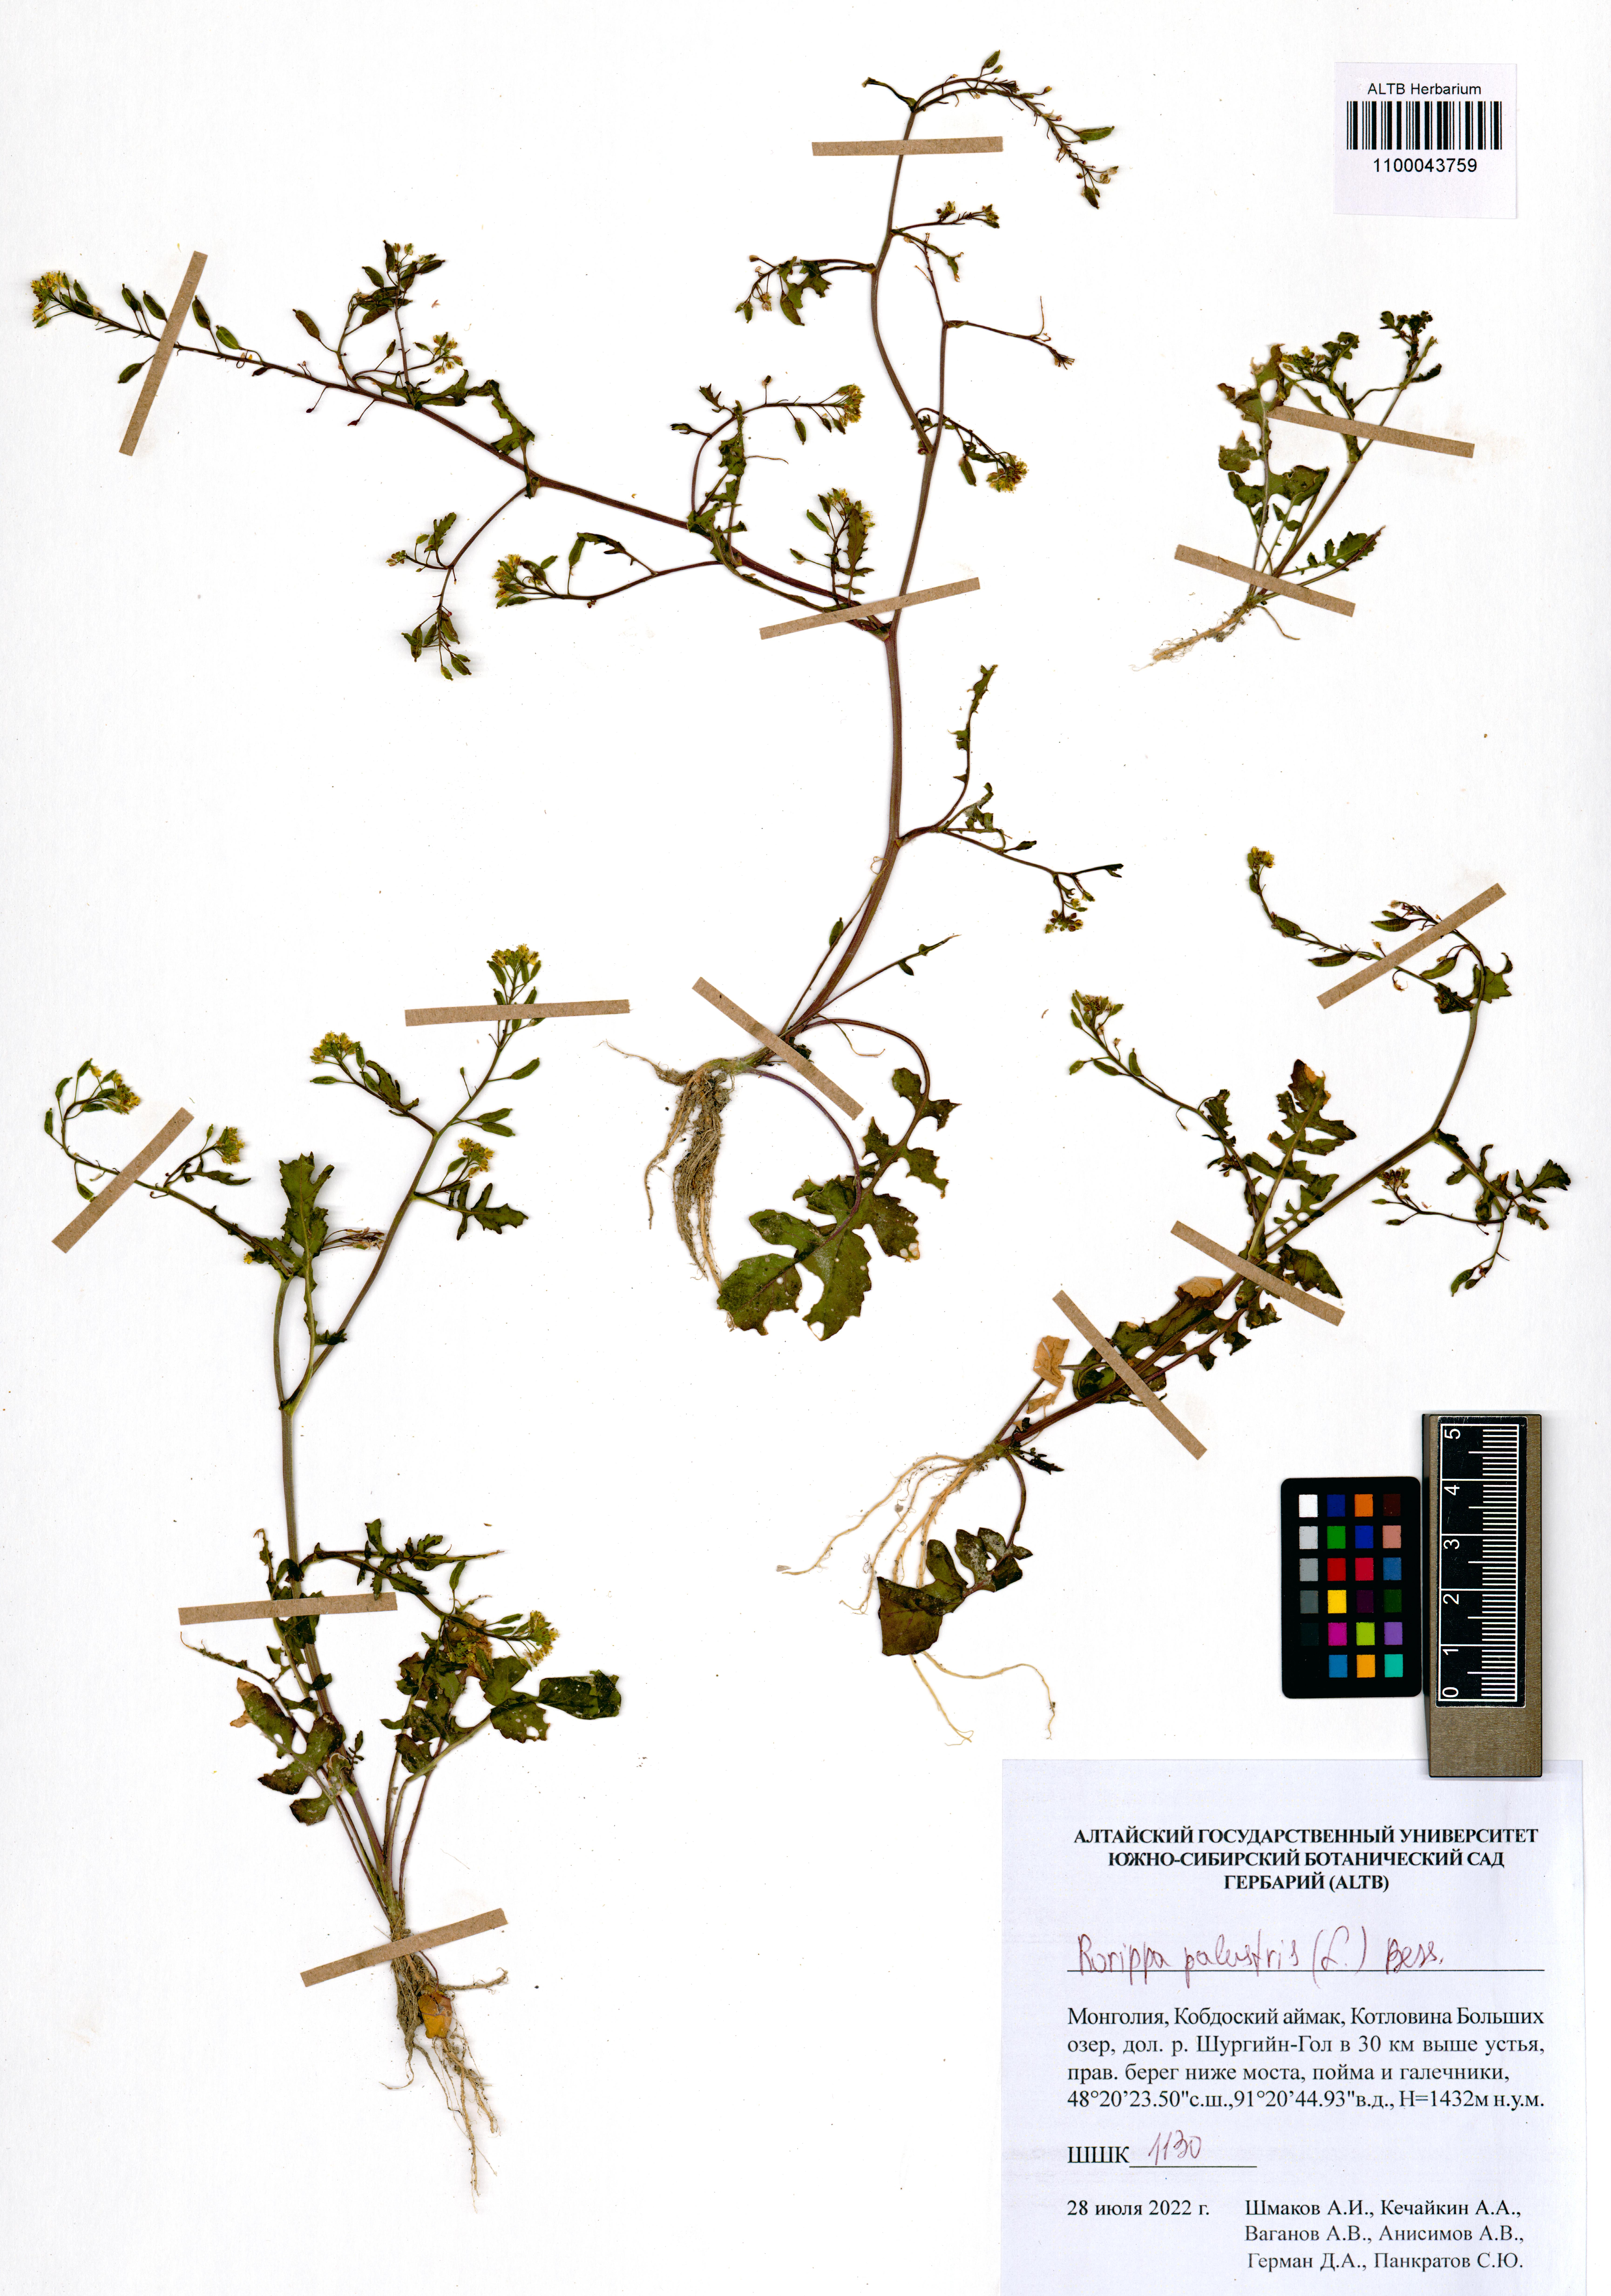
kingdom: Plantae
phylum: Tracheophyta
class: Magnoliopsida
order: Brassicales
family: Brassicaceae
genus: Rorippa
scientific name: Rorippa palustris
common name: Marsh yellow-cress
